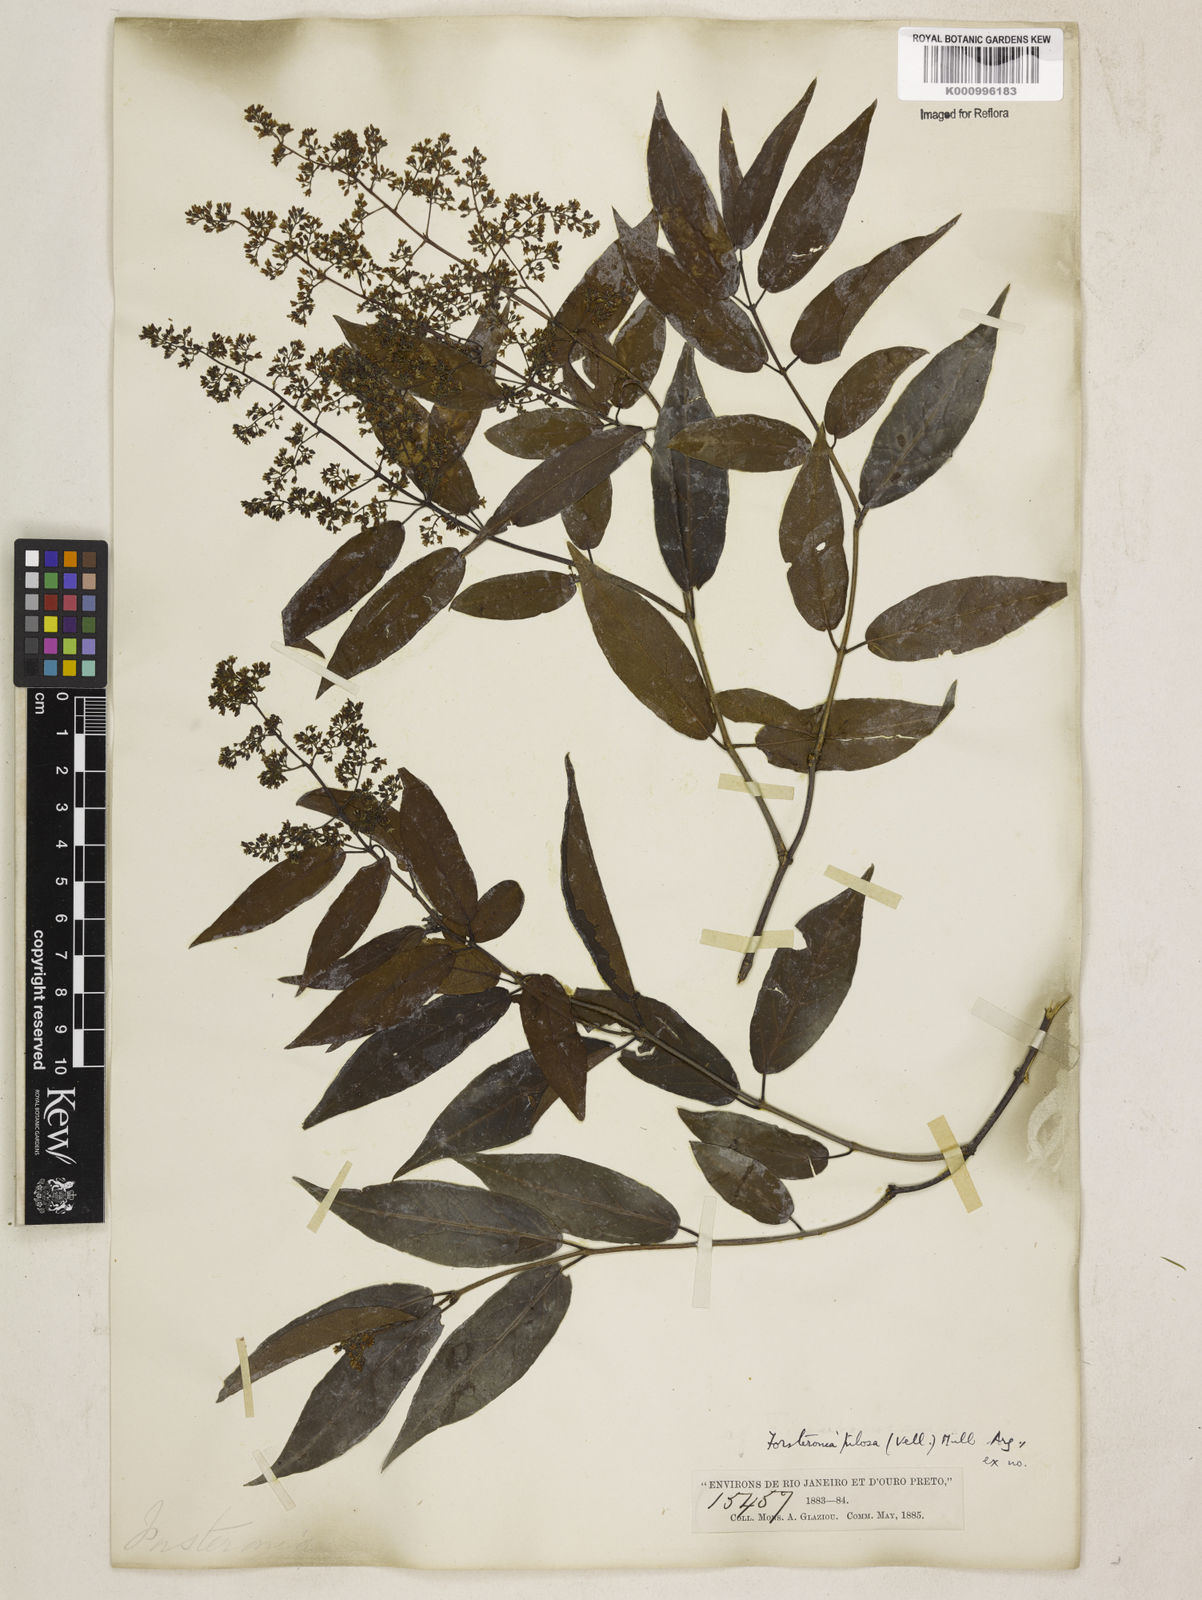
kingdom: Plantae
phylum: Tracheophyta
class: Magnoliopsida
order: Gentianales
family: Apocynaceae
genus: Forsteronia
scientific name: Forsteronia
